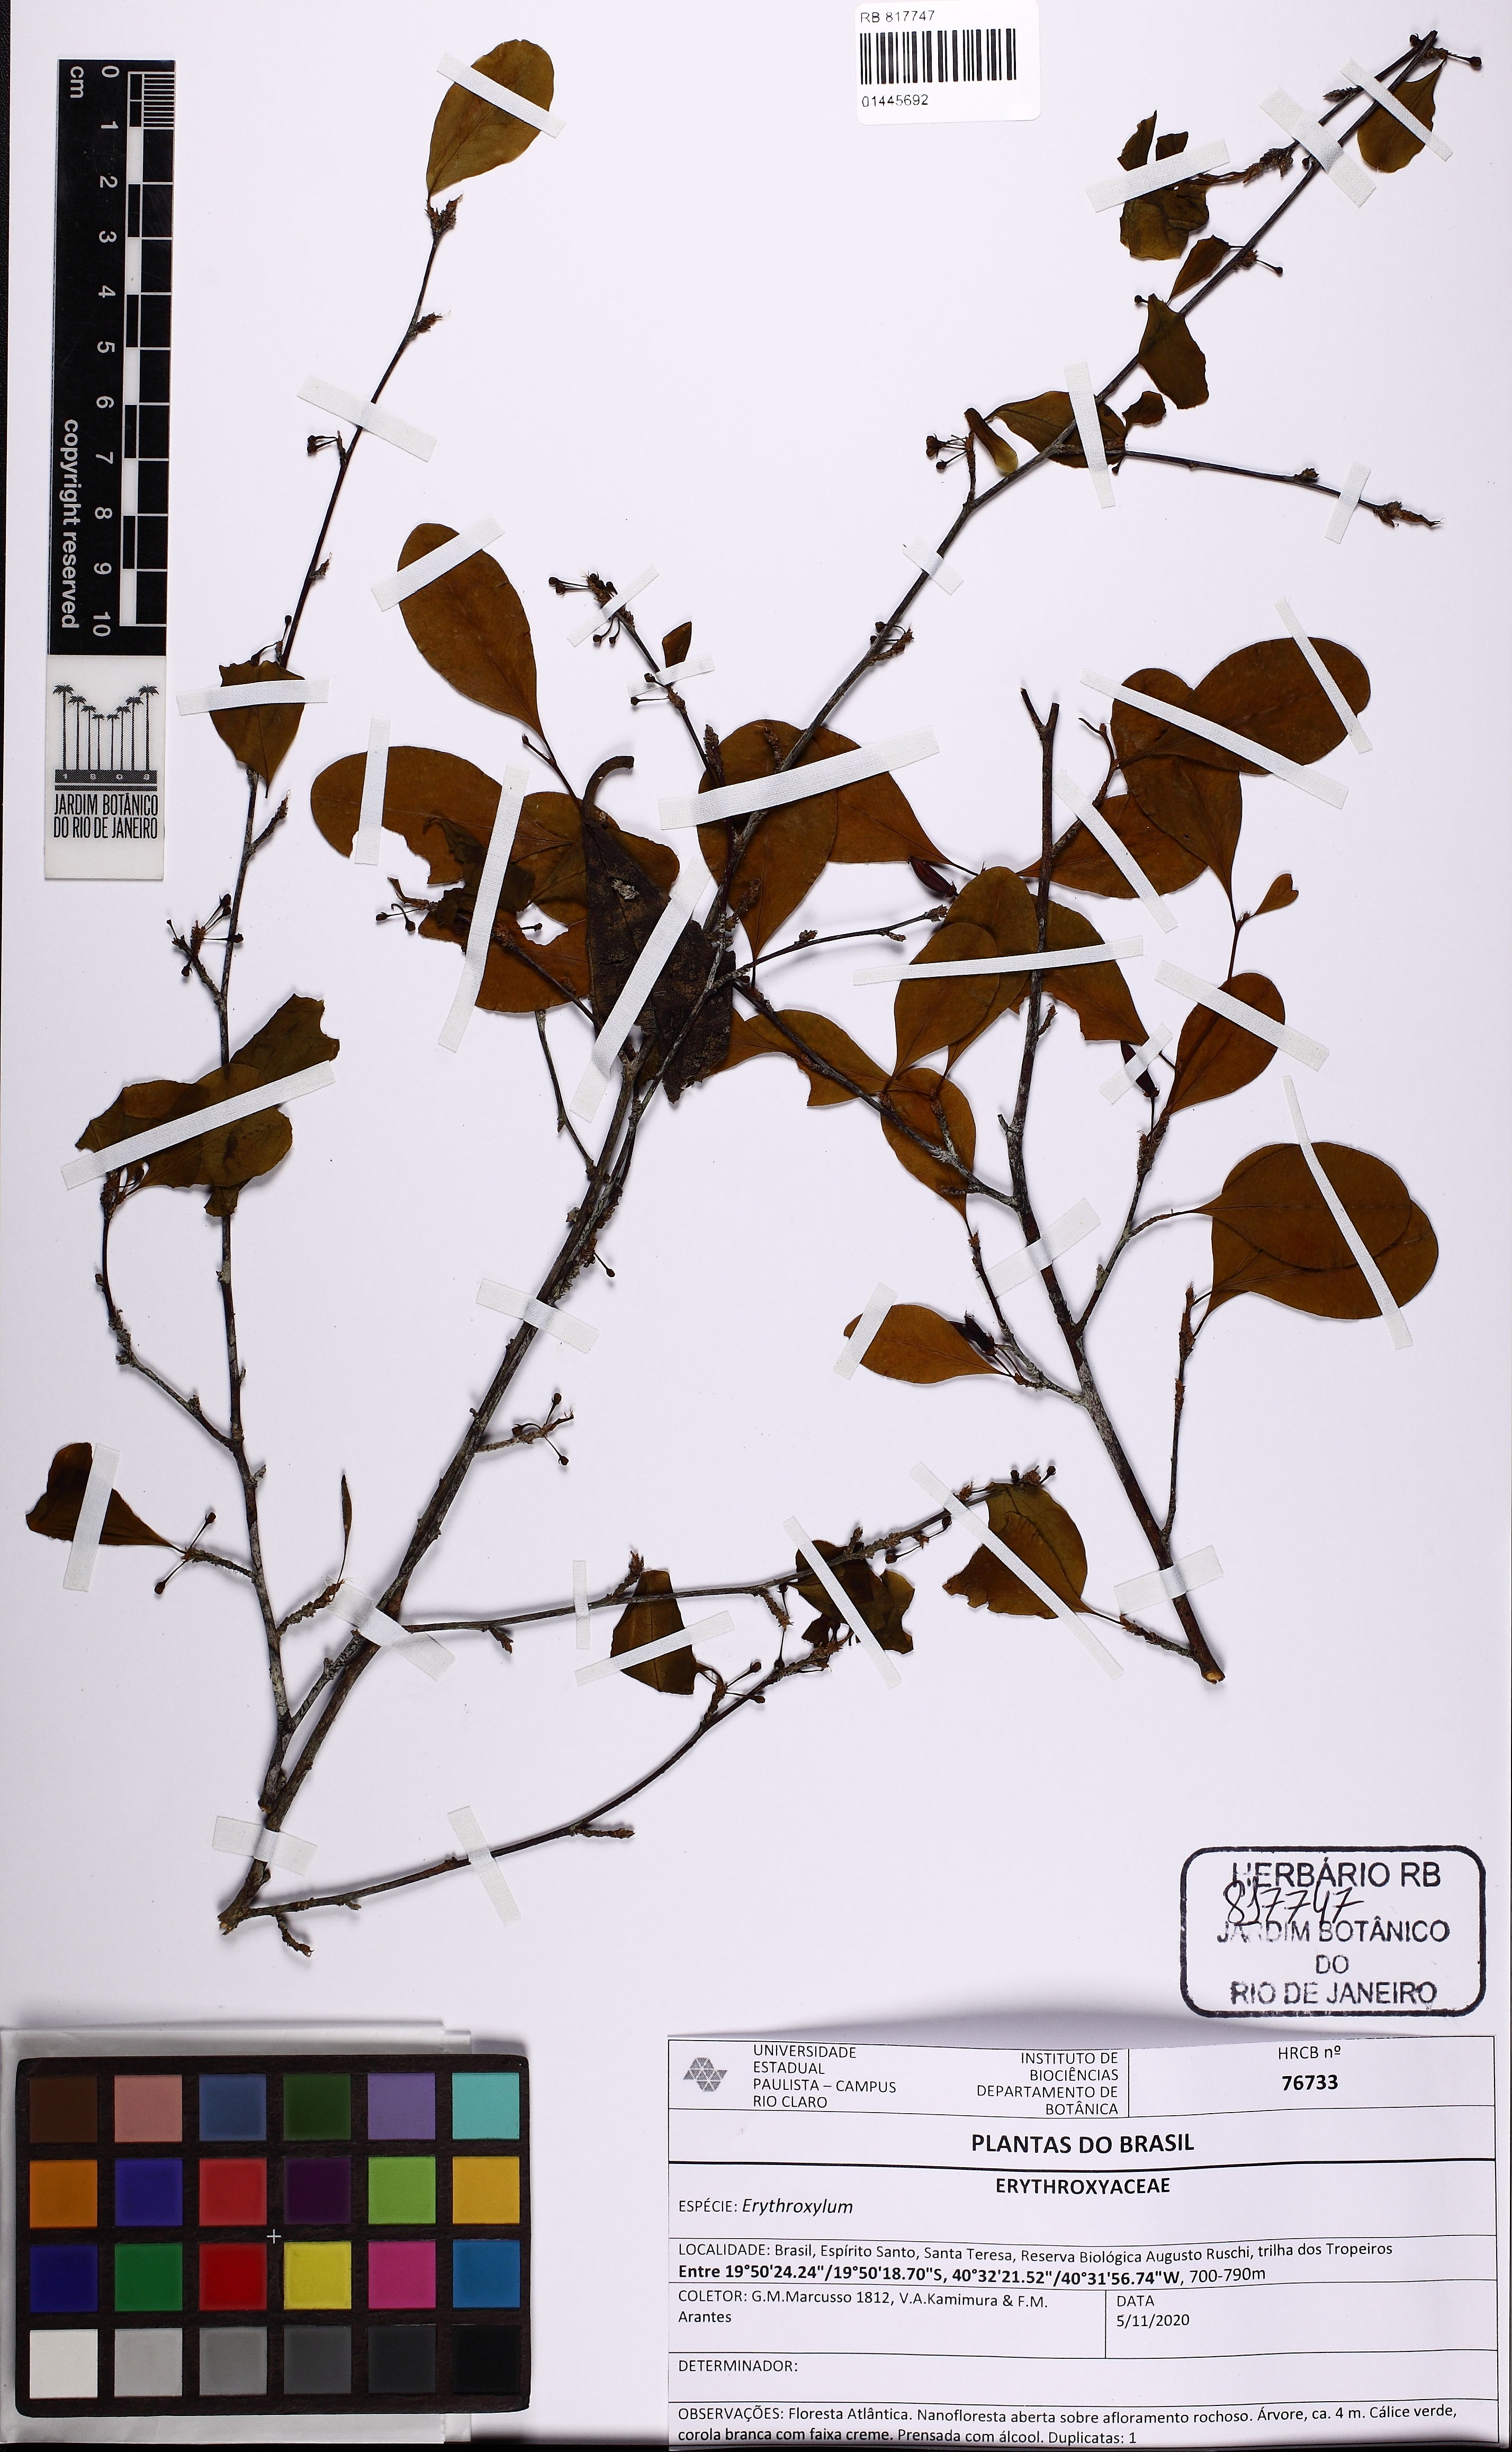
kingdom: Plantae
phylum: Tracheophyta
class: Magnoliopsida
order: Malpighiales
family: Erythroxylaceae
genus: Erythroxylum
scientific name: Erythroxylum
